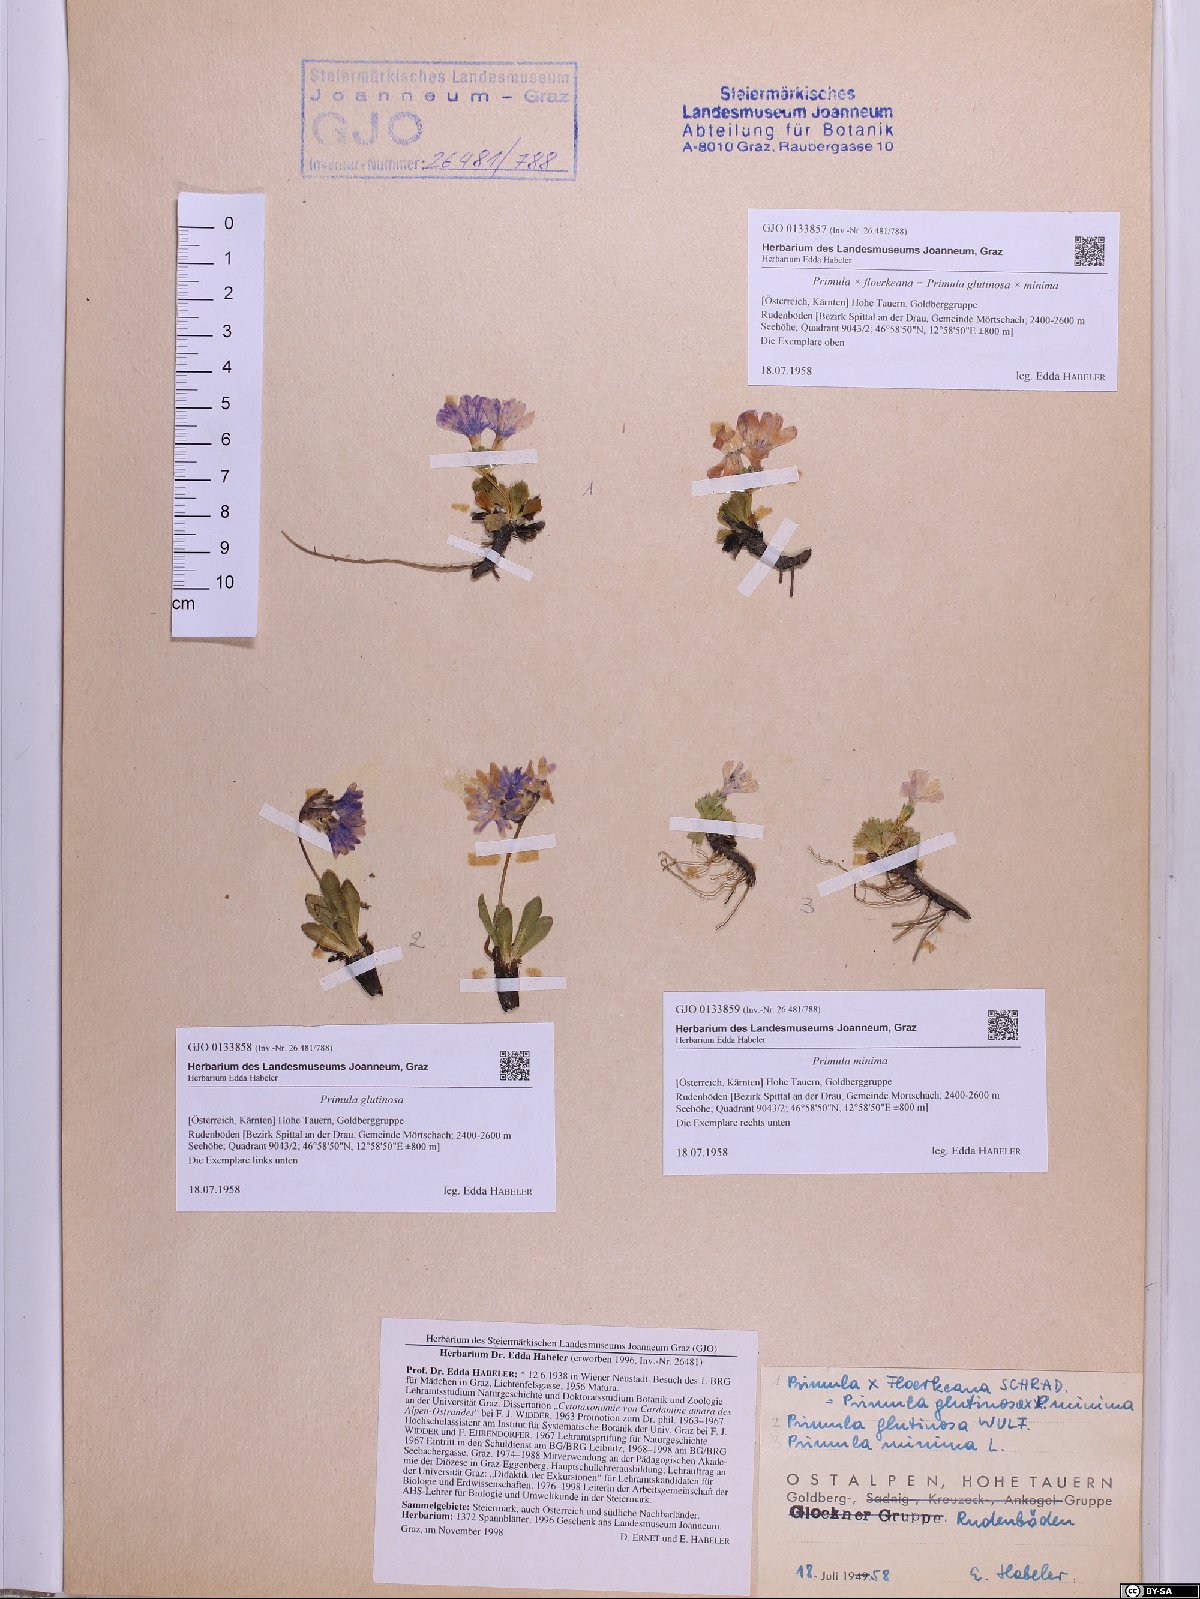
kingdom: Plantae
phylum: Tracheophyta
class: Magnoliopsida
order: Ericales
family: Primulaceae
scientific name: Primulaceae
